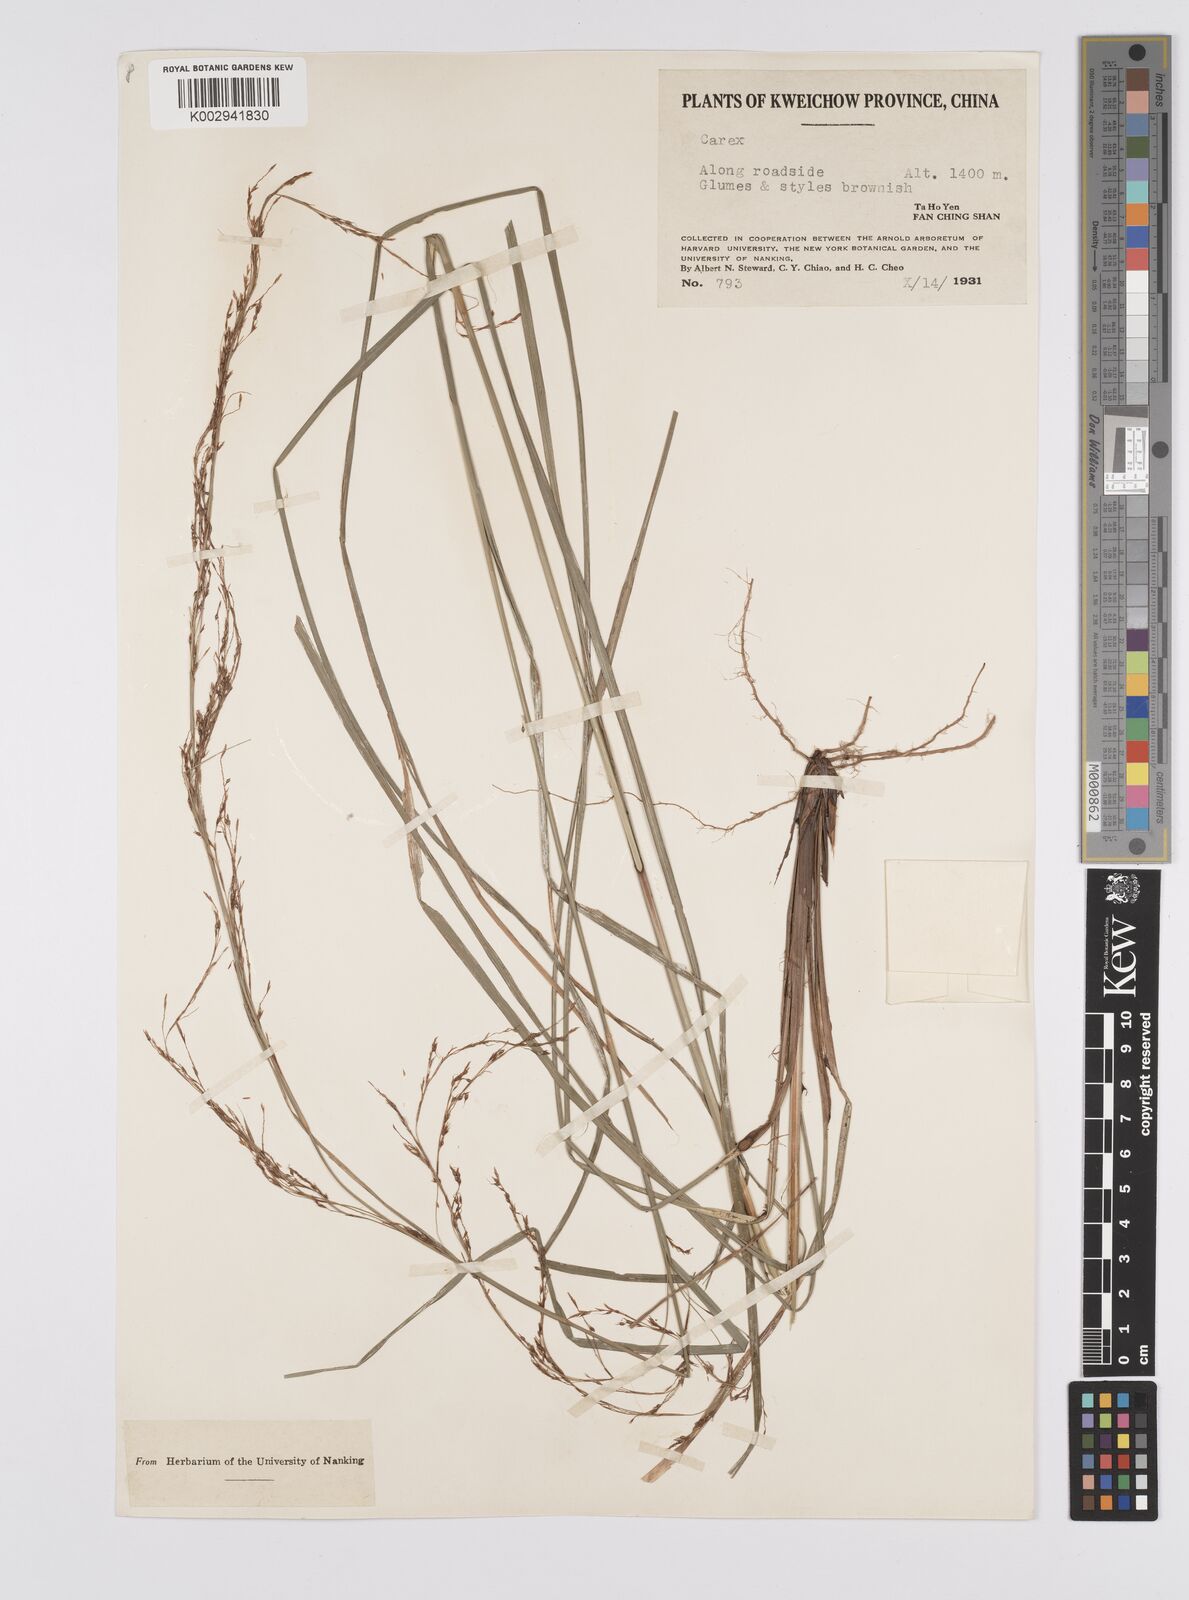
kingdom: Plantae
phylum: Tracheophyta
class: Liliopsida
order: Poales
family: Cyperaceae
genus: Carex
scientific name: Carex longicruris
